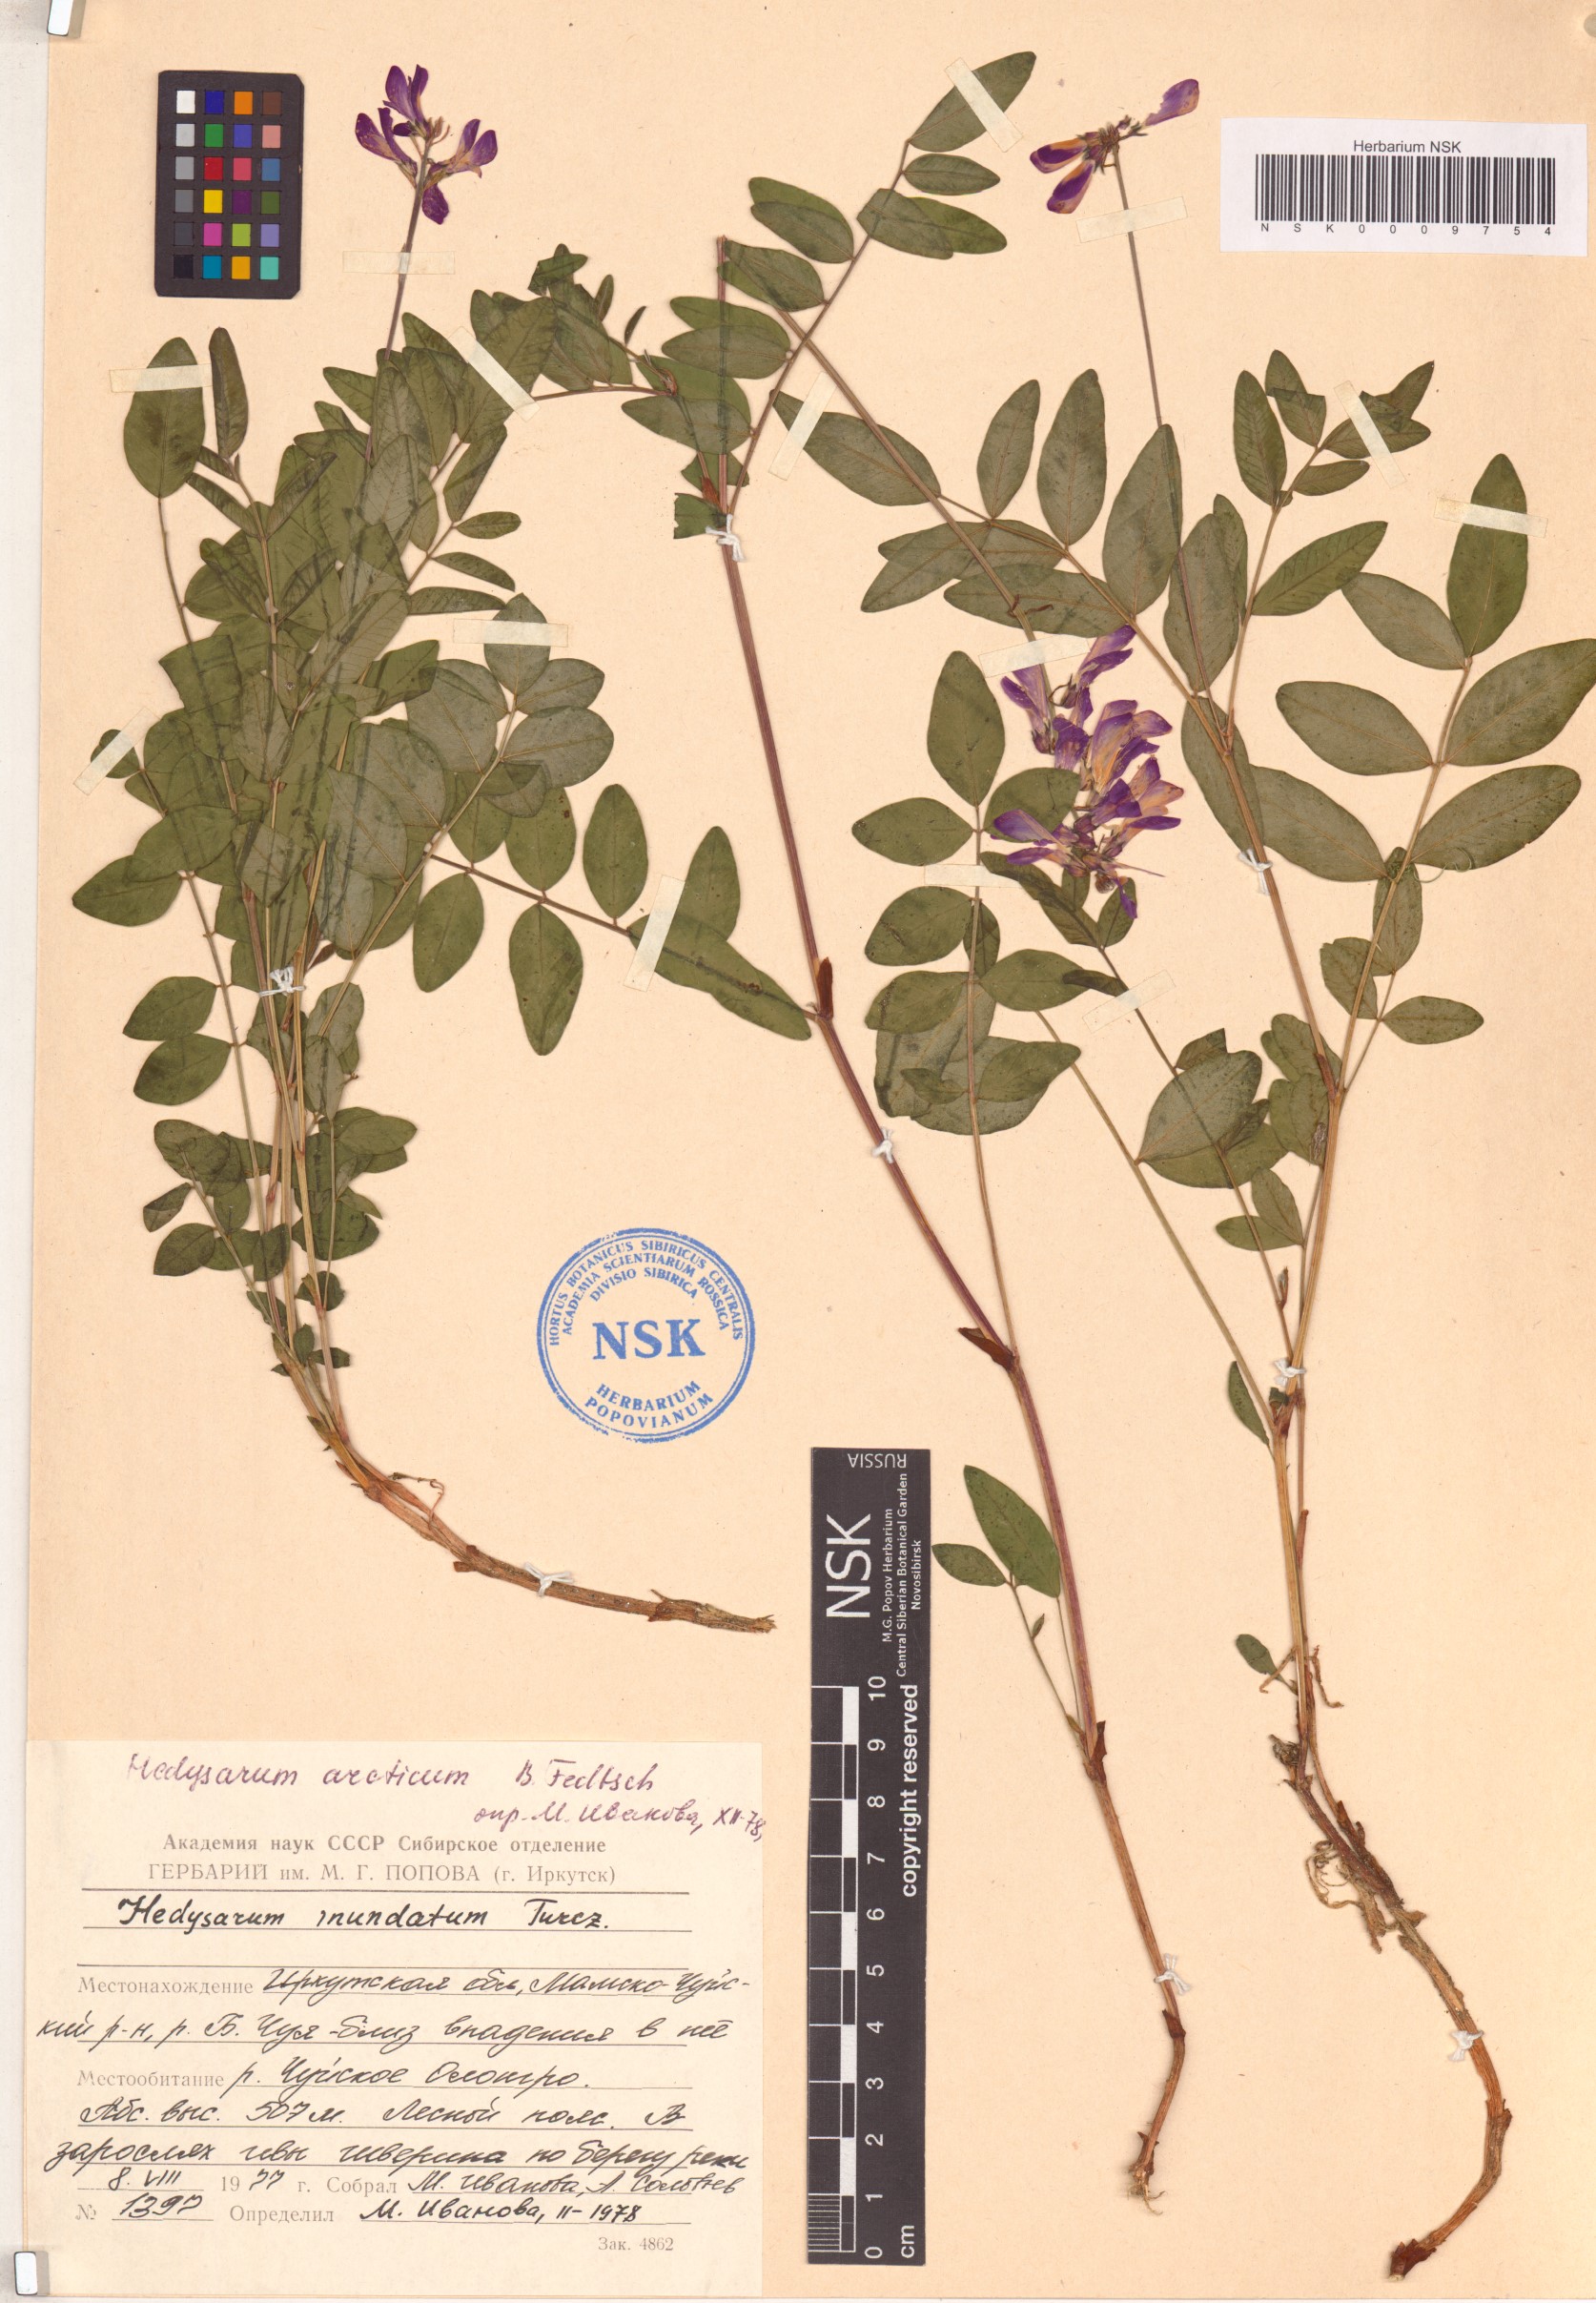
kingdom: Plantae
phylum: Tracheophyta
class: Magnoliopsida
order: Fabales
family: Fabaceae
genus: Hedysarum
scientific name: Hedysarum hedysaroides
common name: Alpine french-honeysuckle
